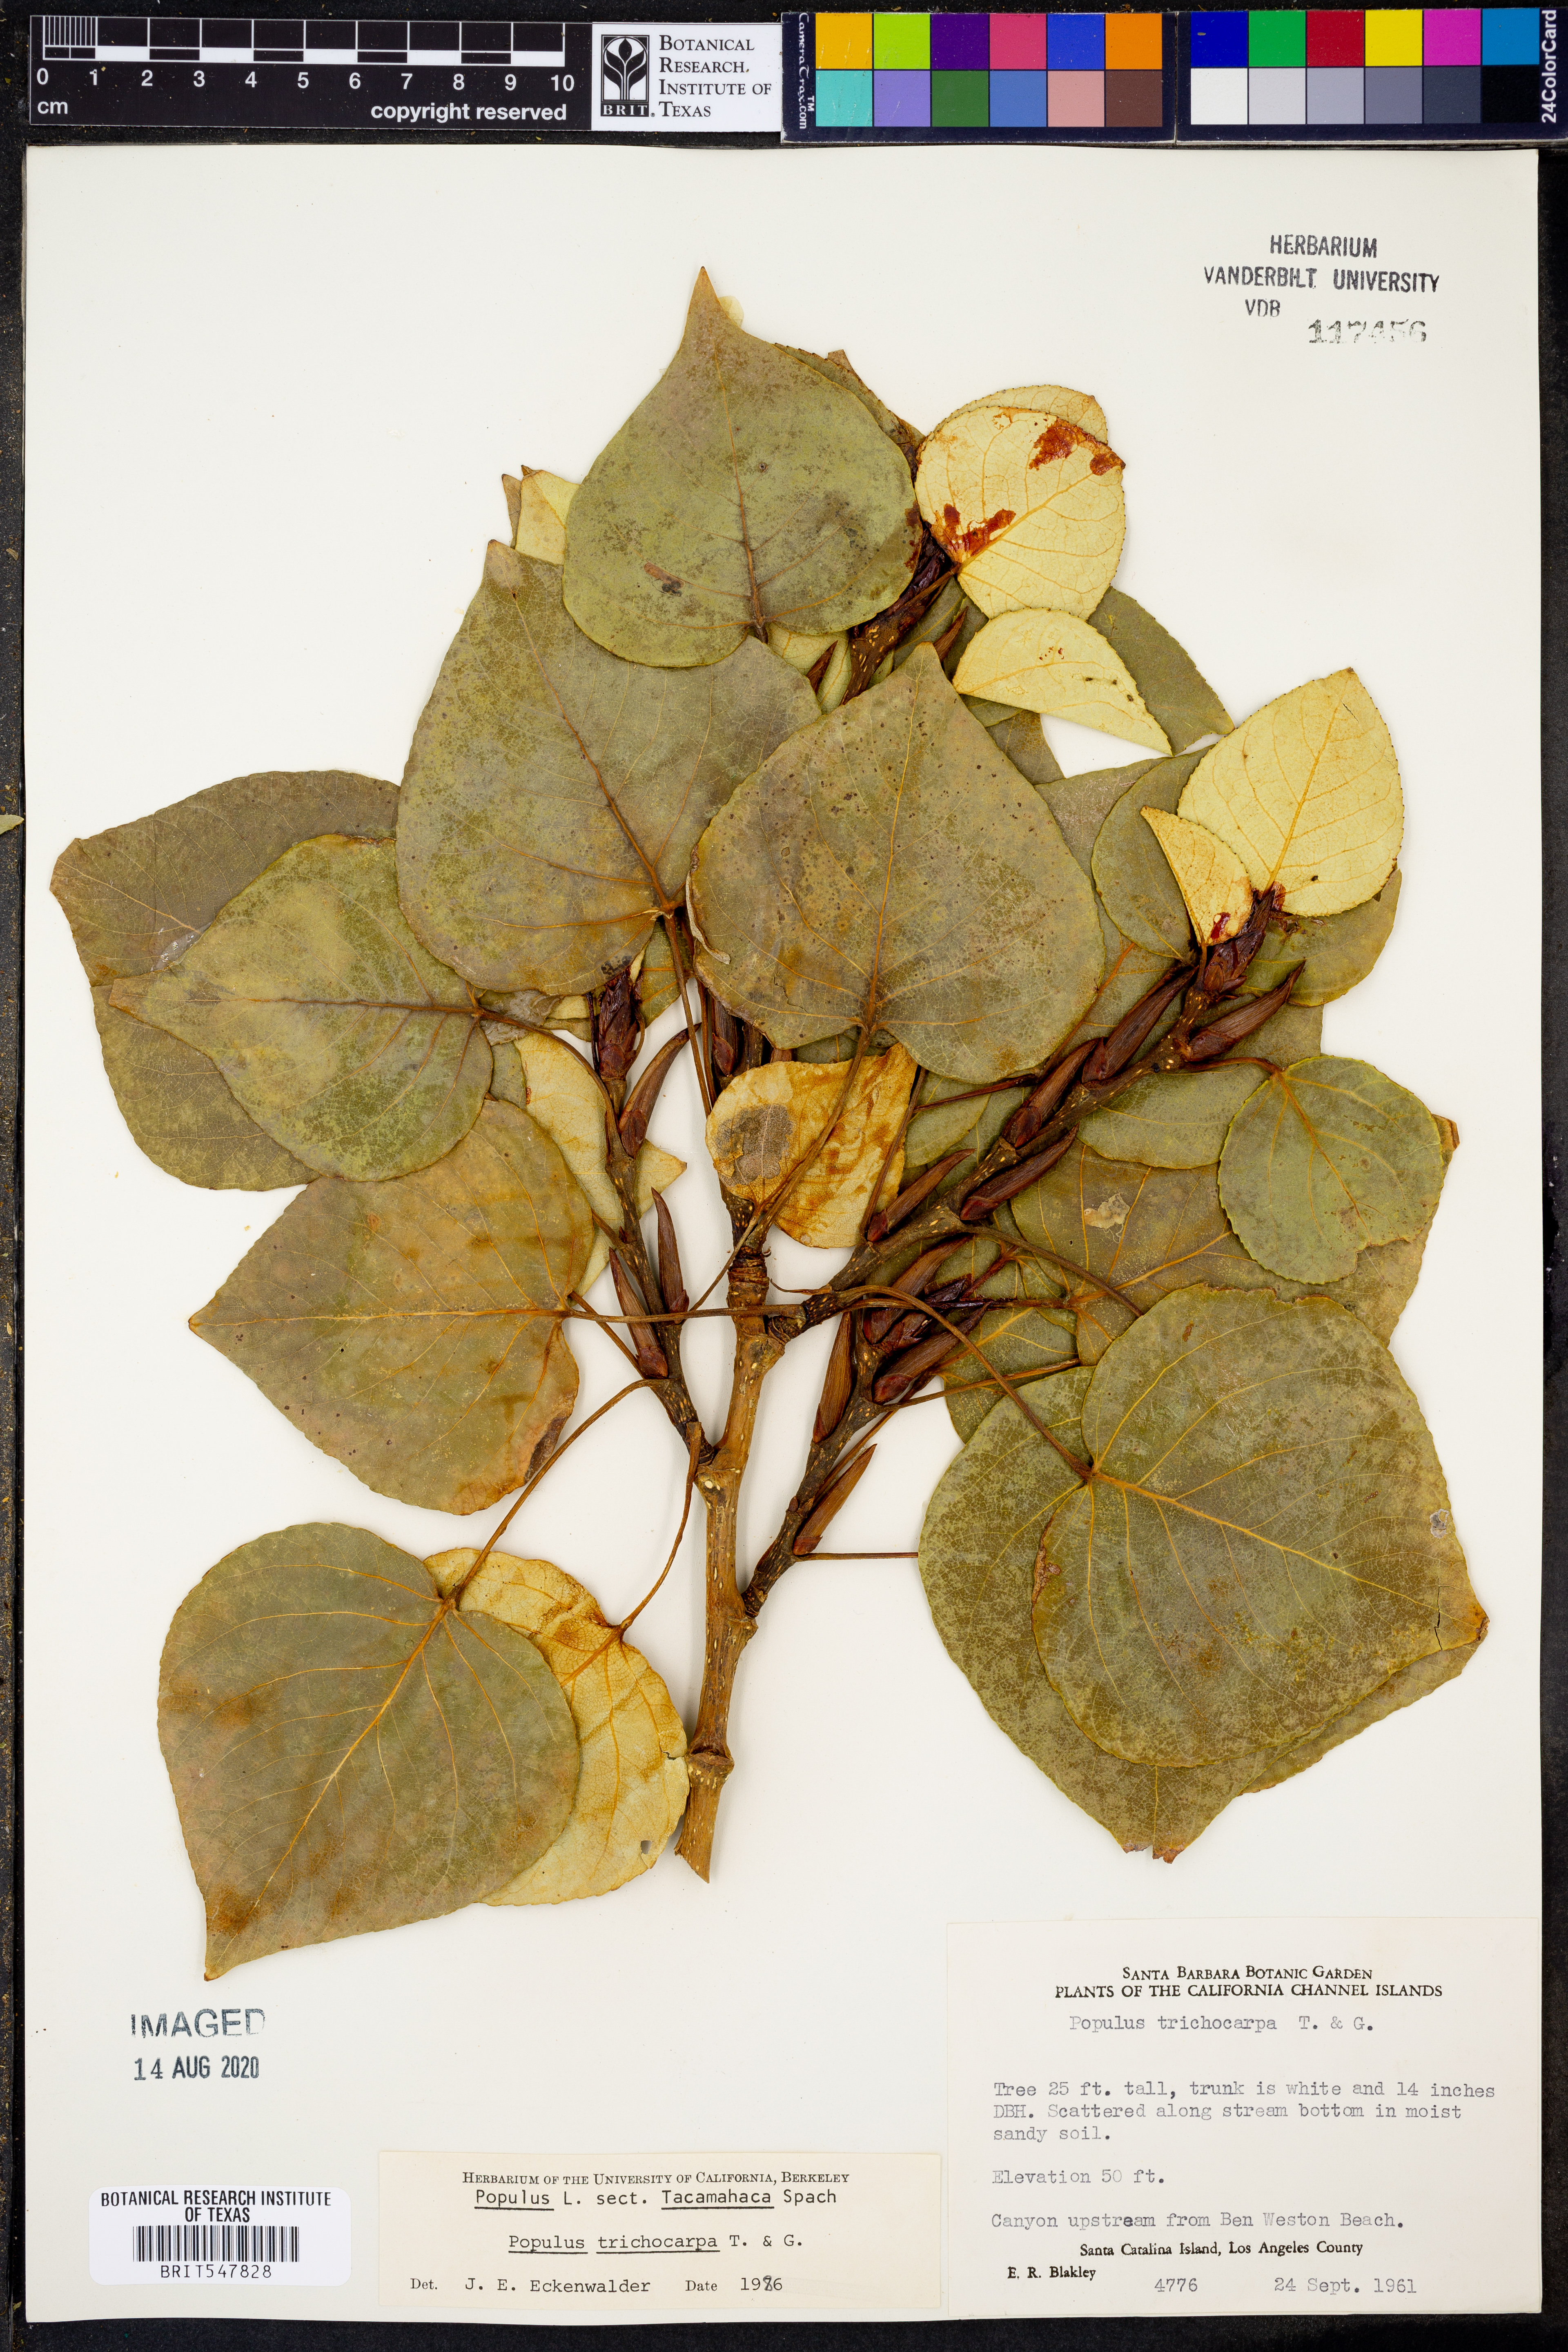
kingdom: Plantae
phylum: Tracheophyta
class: Magnoliopsida
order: Malpighiales
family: Salicaceae
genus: Populus
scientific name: Populus trichocarpa
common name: Black cottonwood
